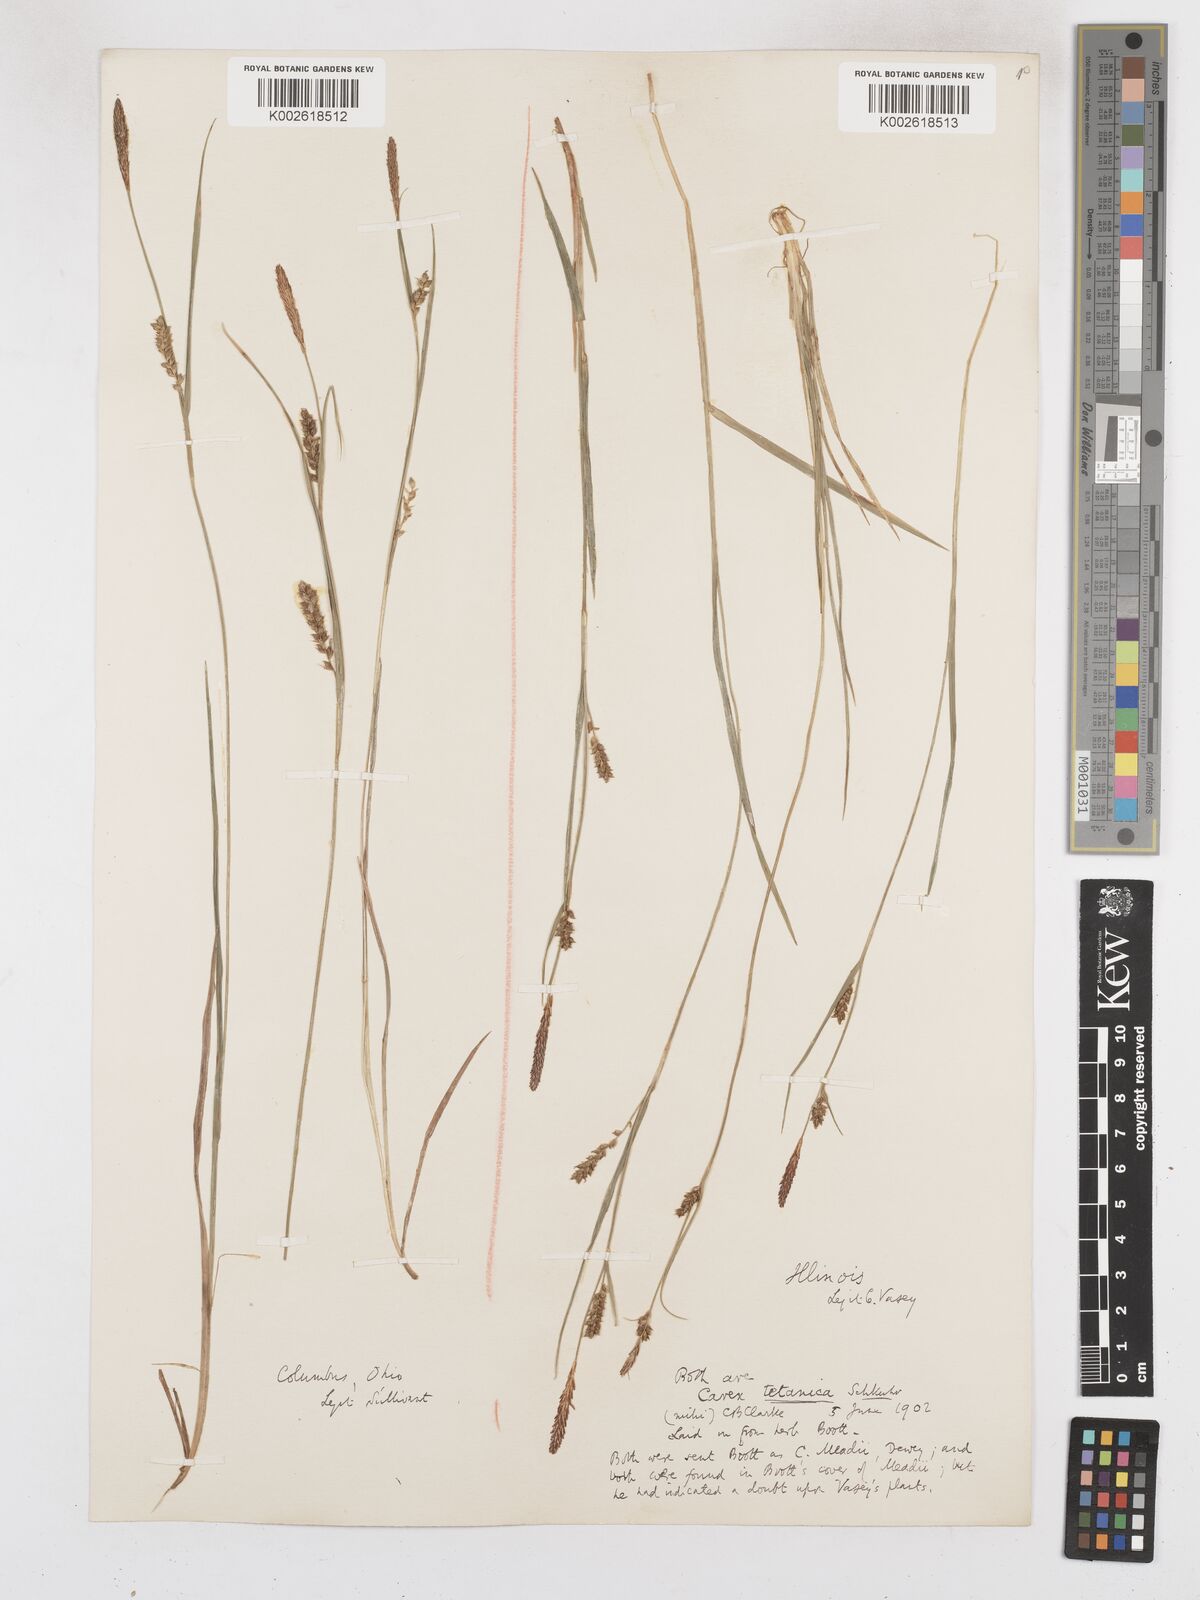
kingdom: Plantae
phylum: Tracheophyta
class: Liliopsida
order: Poales
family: Cyperaceae
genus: Carex
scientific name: Carex tetanica
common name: Rigid sedge
